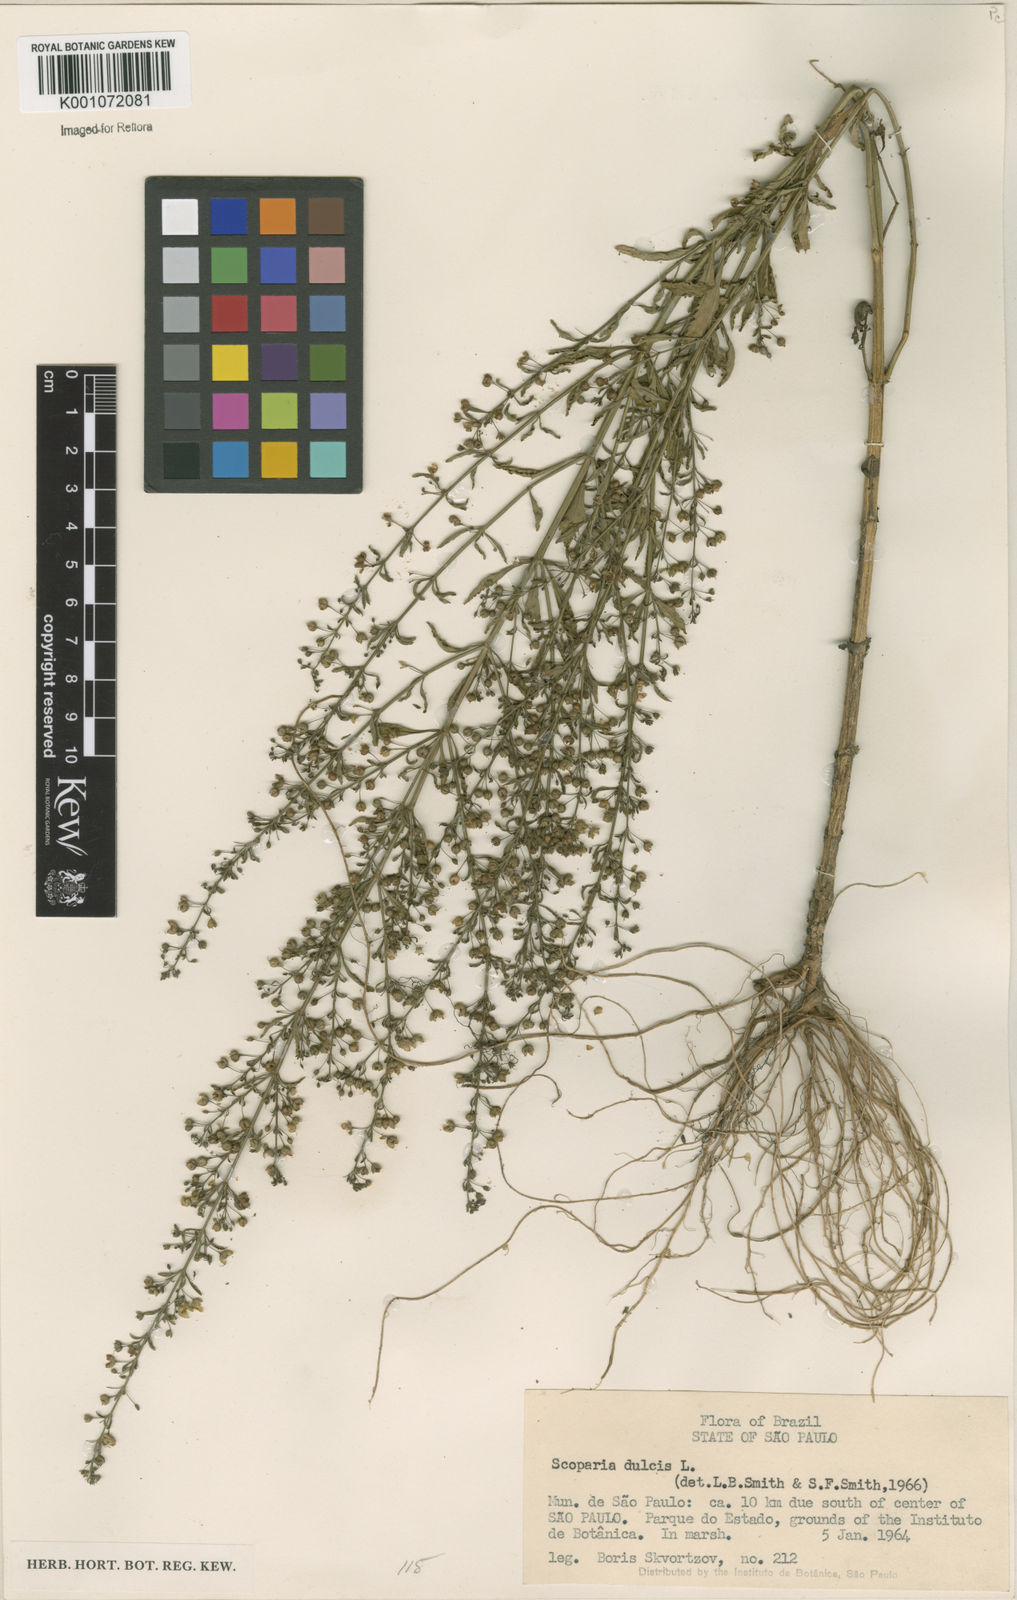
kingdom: Plantae
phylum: Tracheophyta
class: Magnoliopsida
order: Lamiales
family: Plantaginaceae
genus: Scoparia
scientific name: Scoparia dulcis
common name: Scoparia-weed
